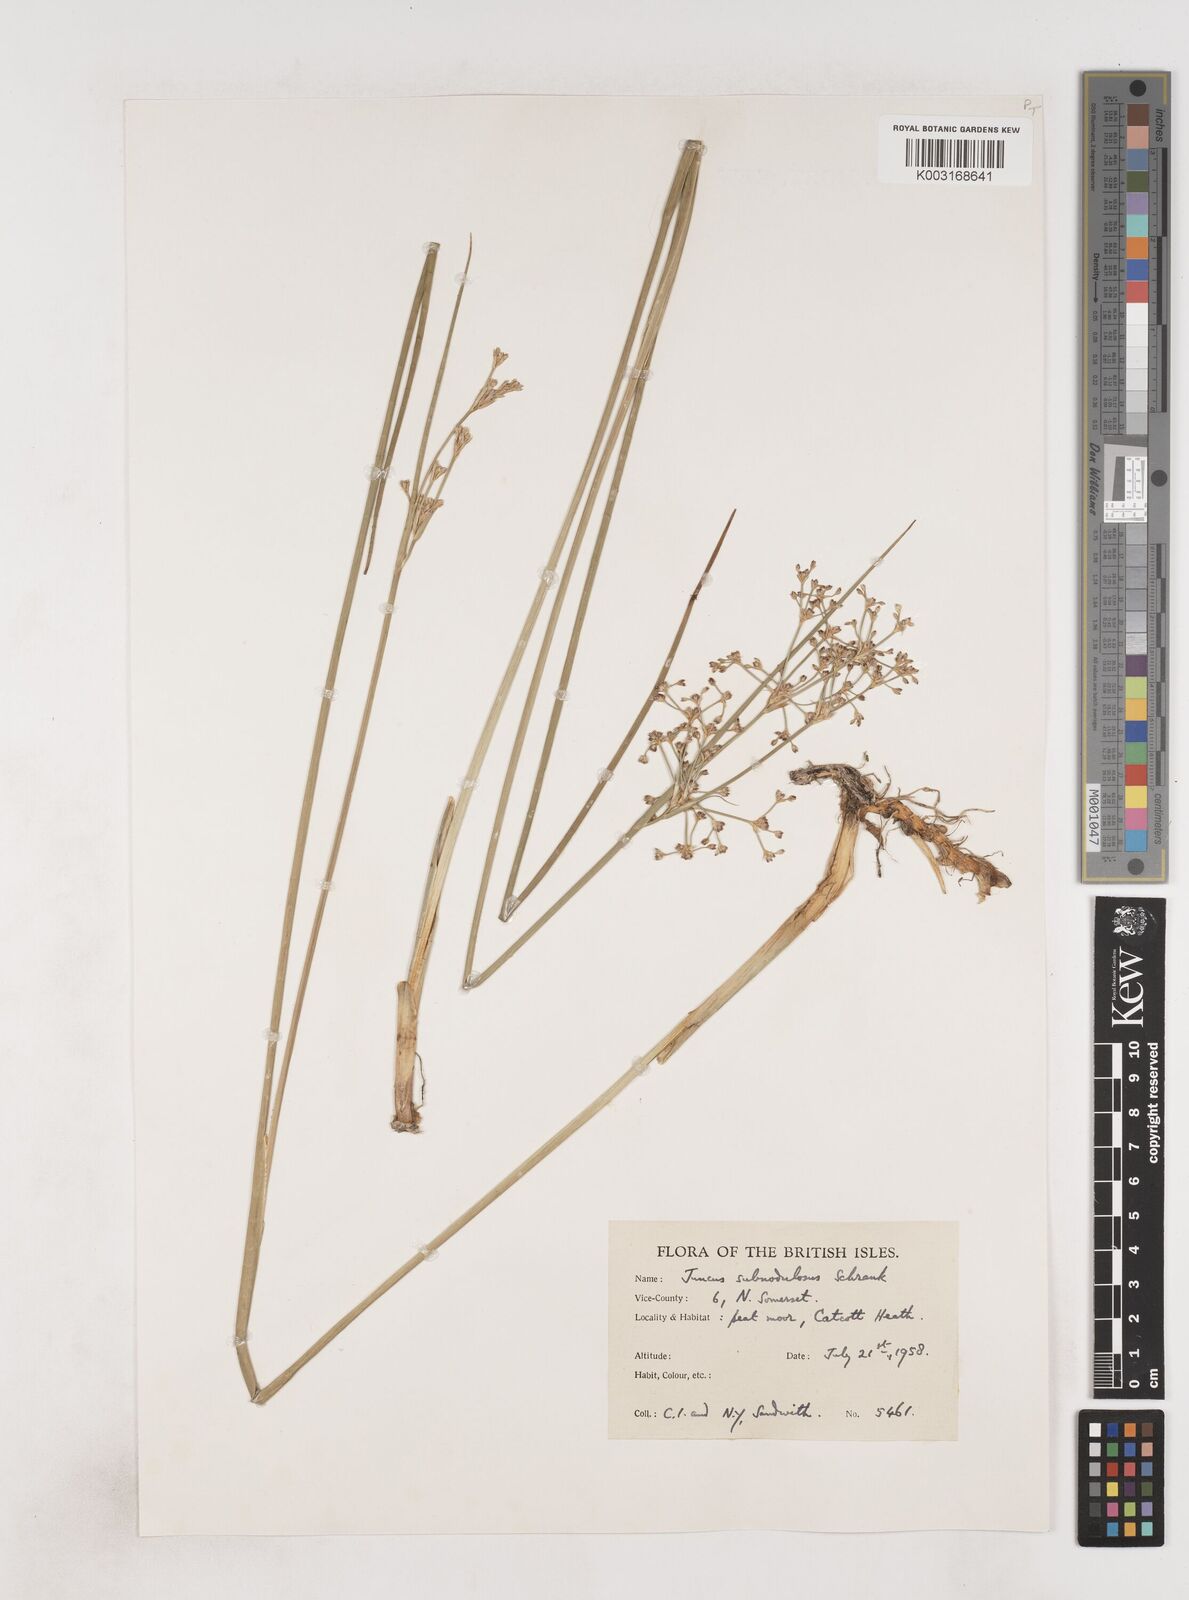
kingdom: Plantae
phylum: Tracheophyta
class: Liliopsida
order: Poales
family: Juncaceae
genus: Juncus
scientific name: Juncus subnodulosus
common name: Blunt-flowered rush
